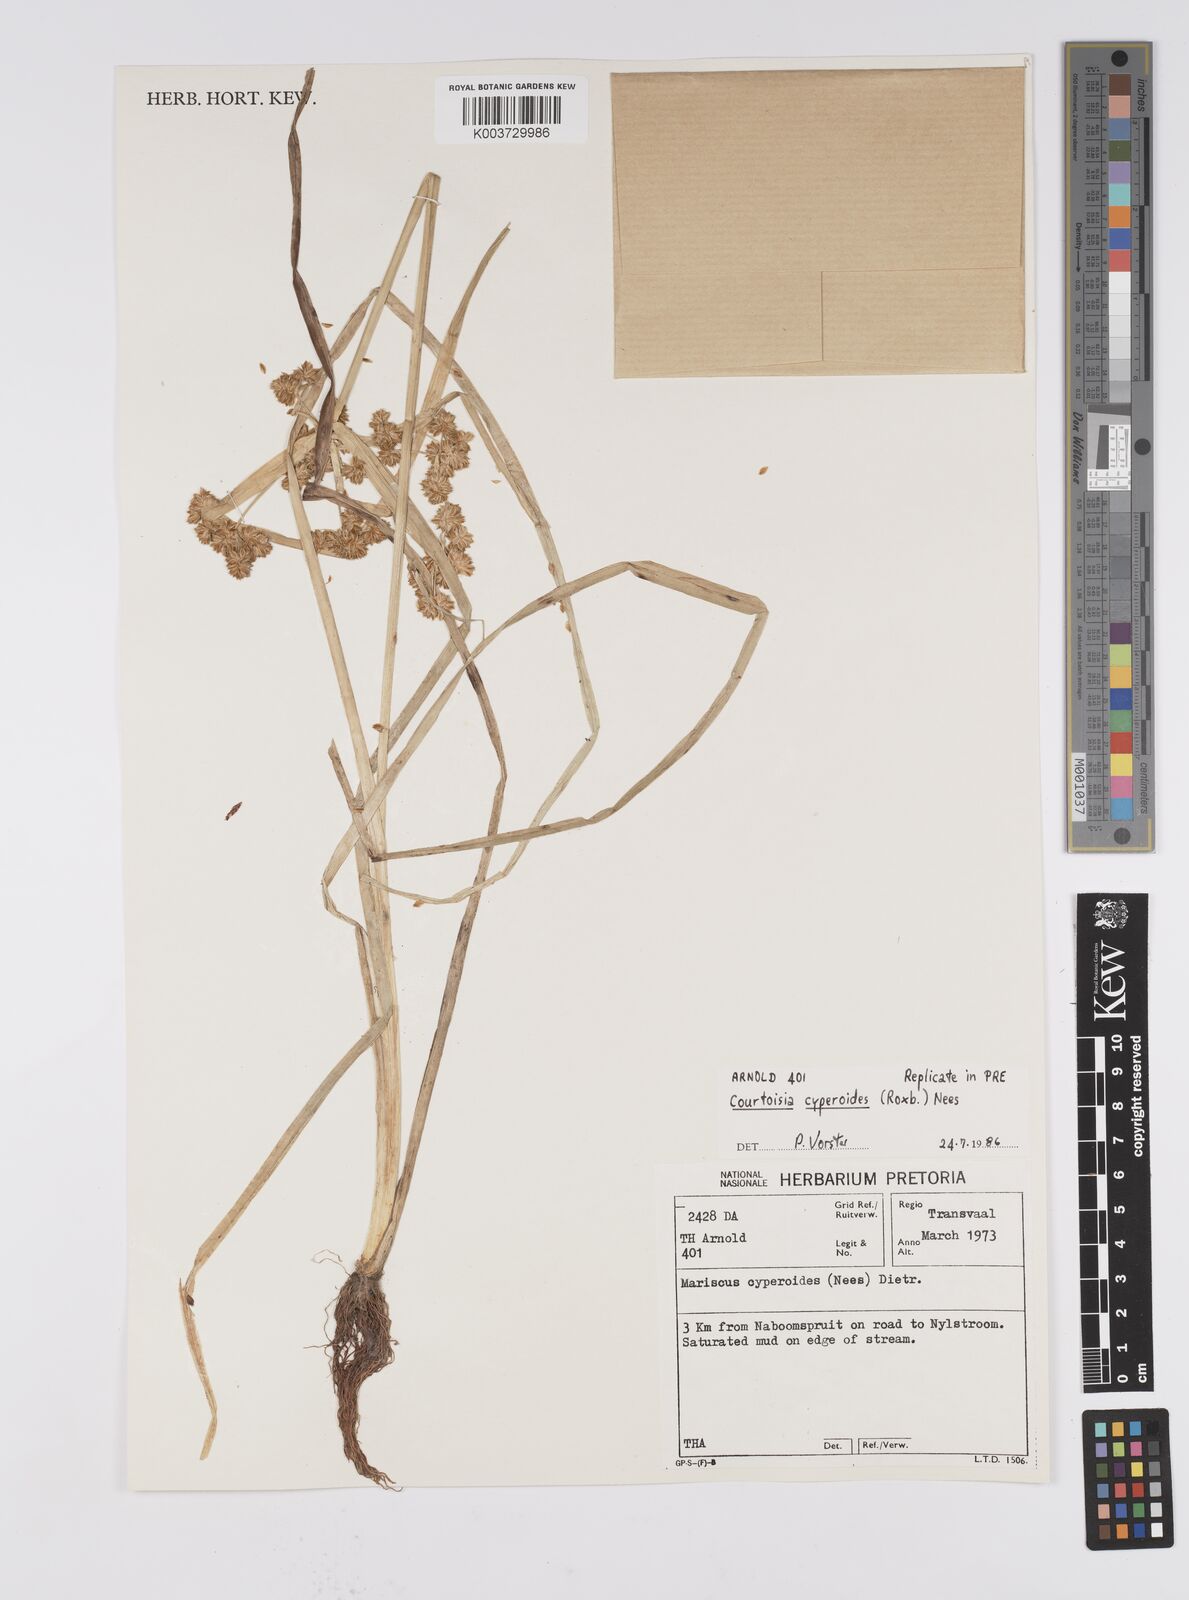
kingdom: Plantae
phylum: Tracheophyta
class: Liliopsida
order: Poales
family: Cyperaceae
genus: Cyperus
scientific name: Cyperus cyperoides
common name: Pacific island flat sedge
